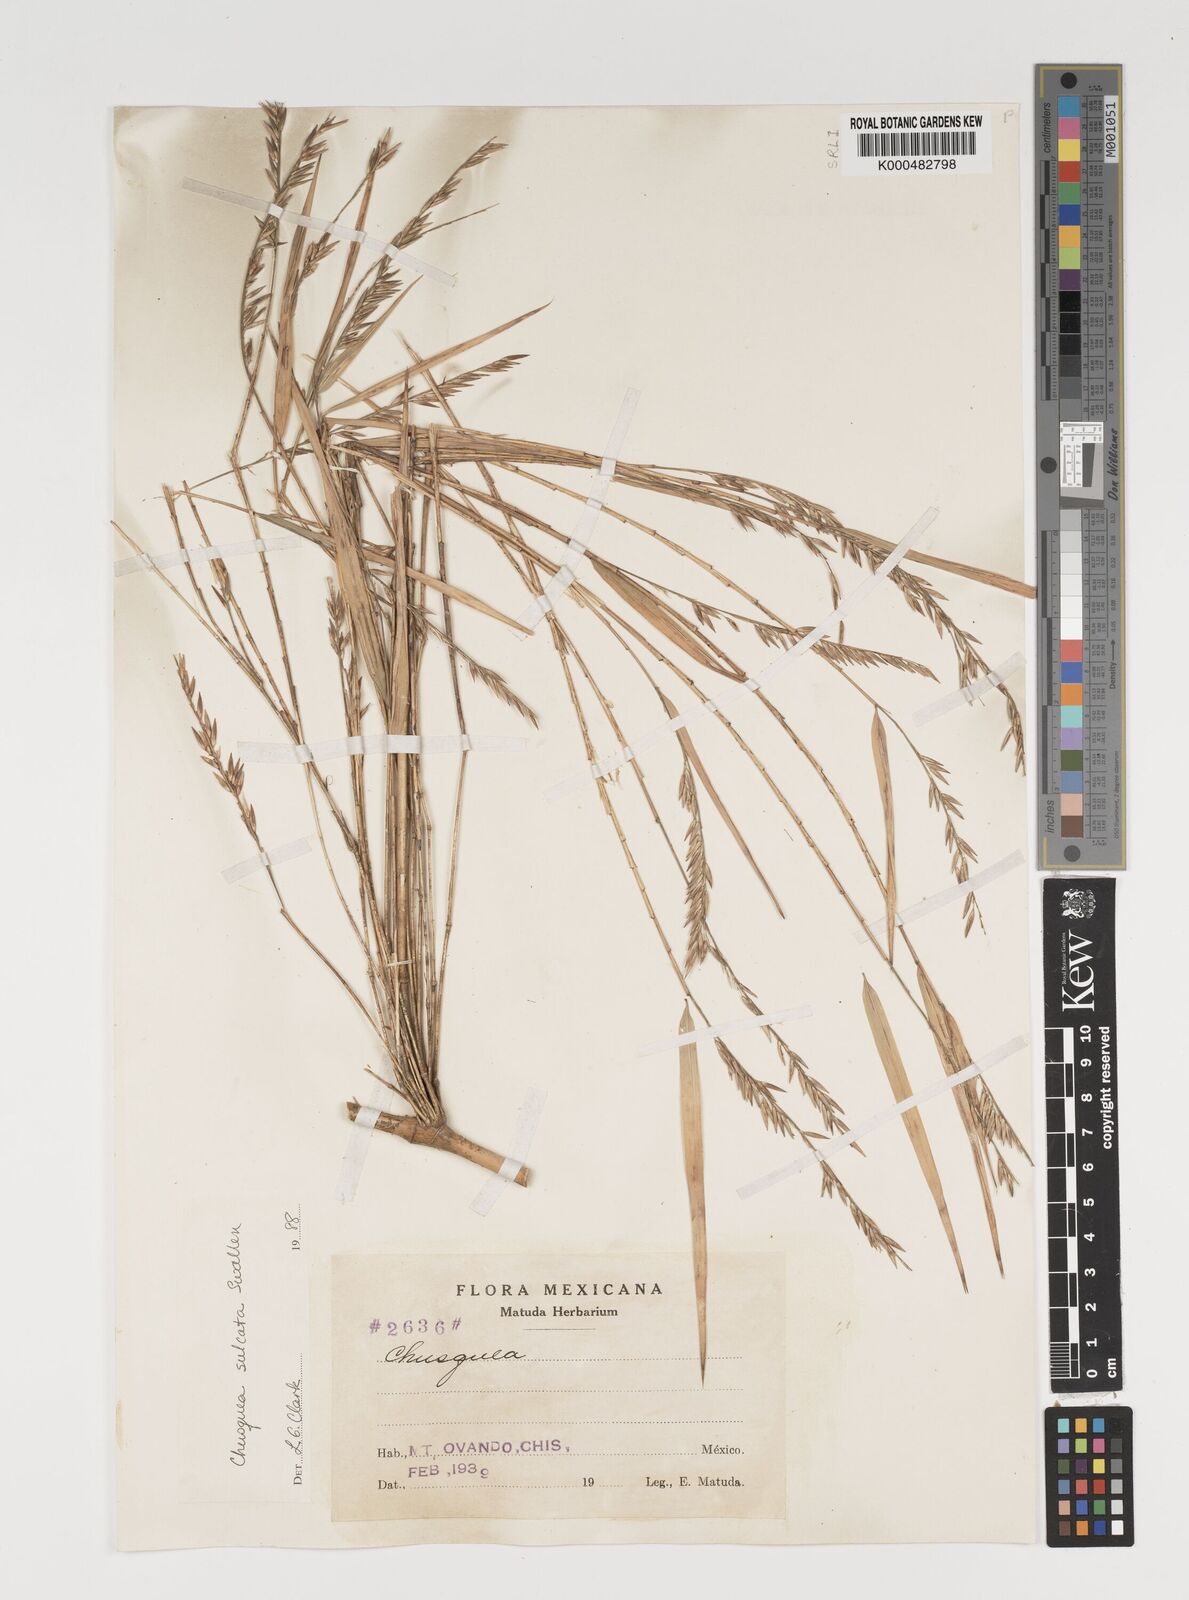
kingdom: Plantae
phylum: Tracheophyta
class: Liliopsida
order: Poales
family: Poaceae
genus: Chusquea
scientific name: Chusquea sulcata
